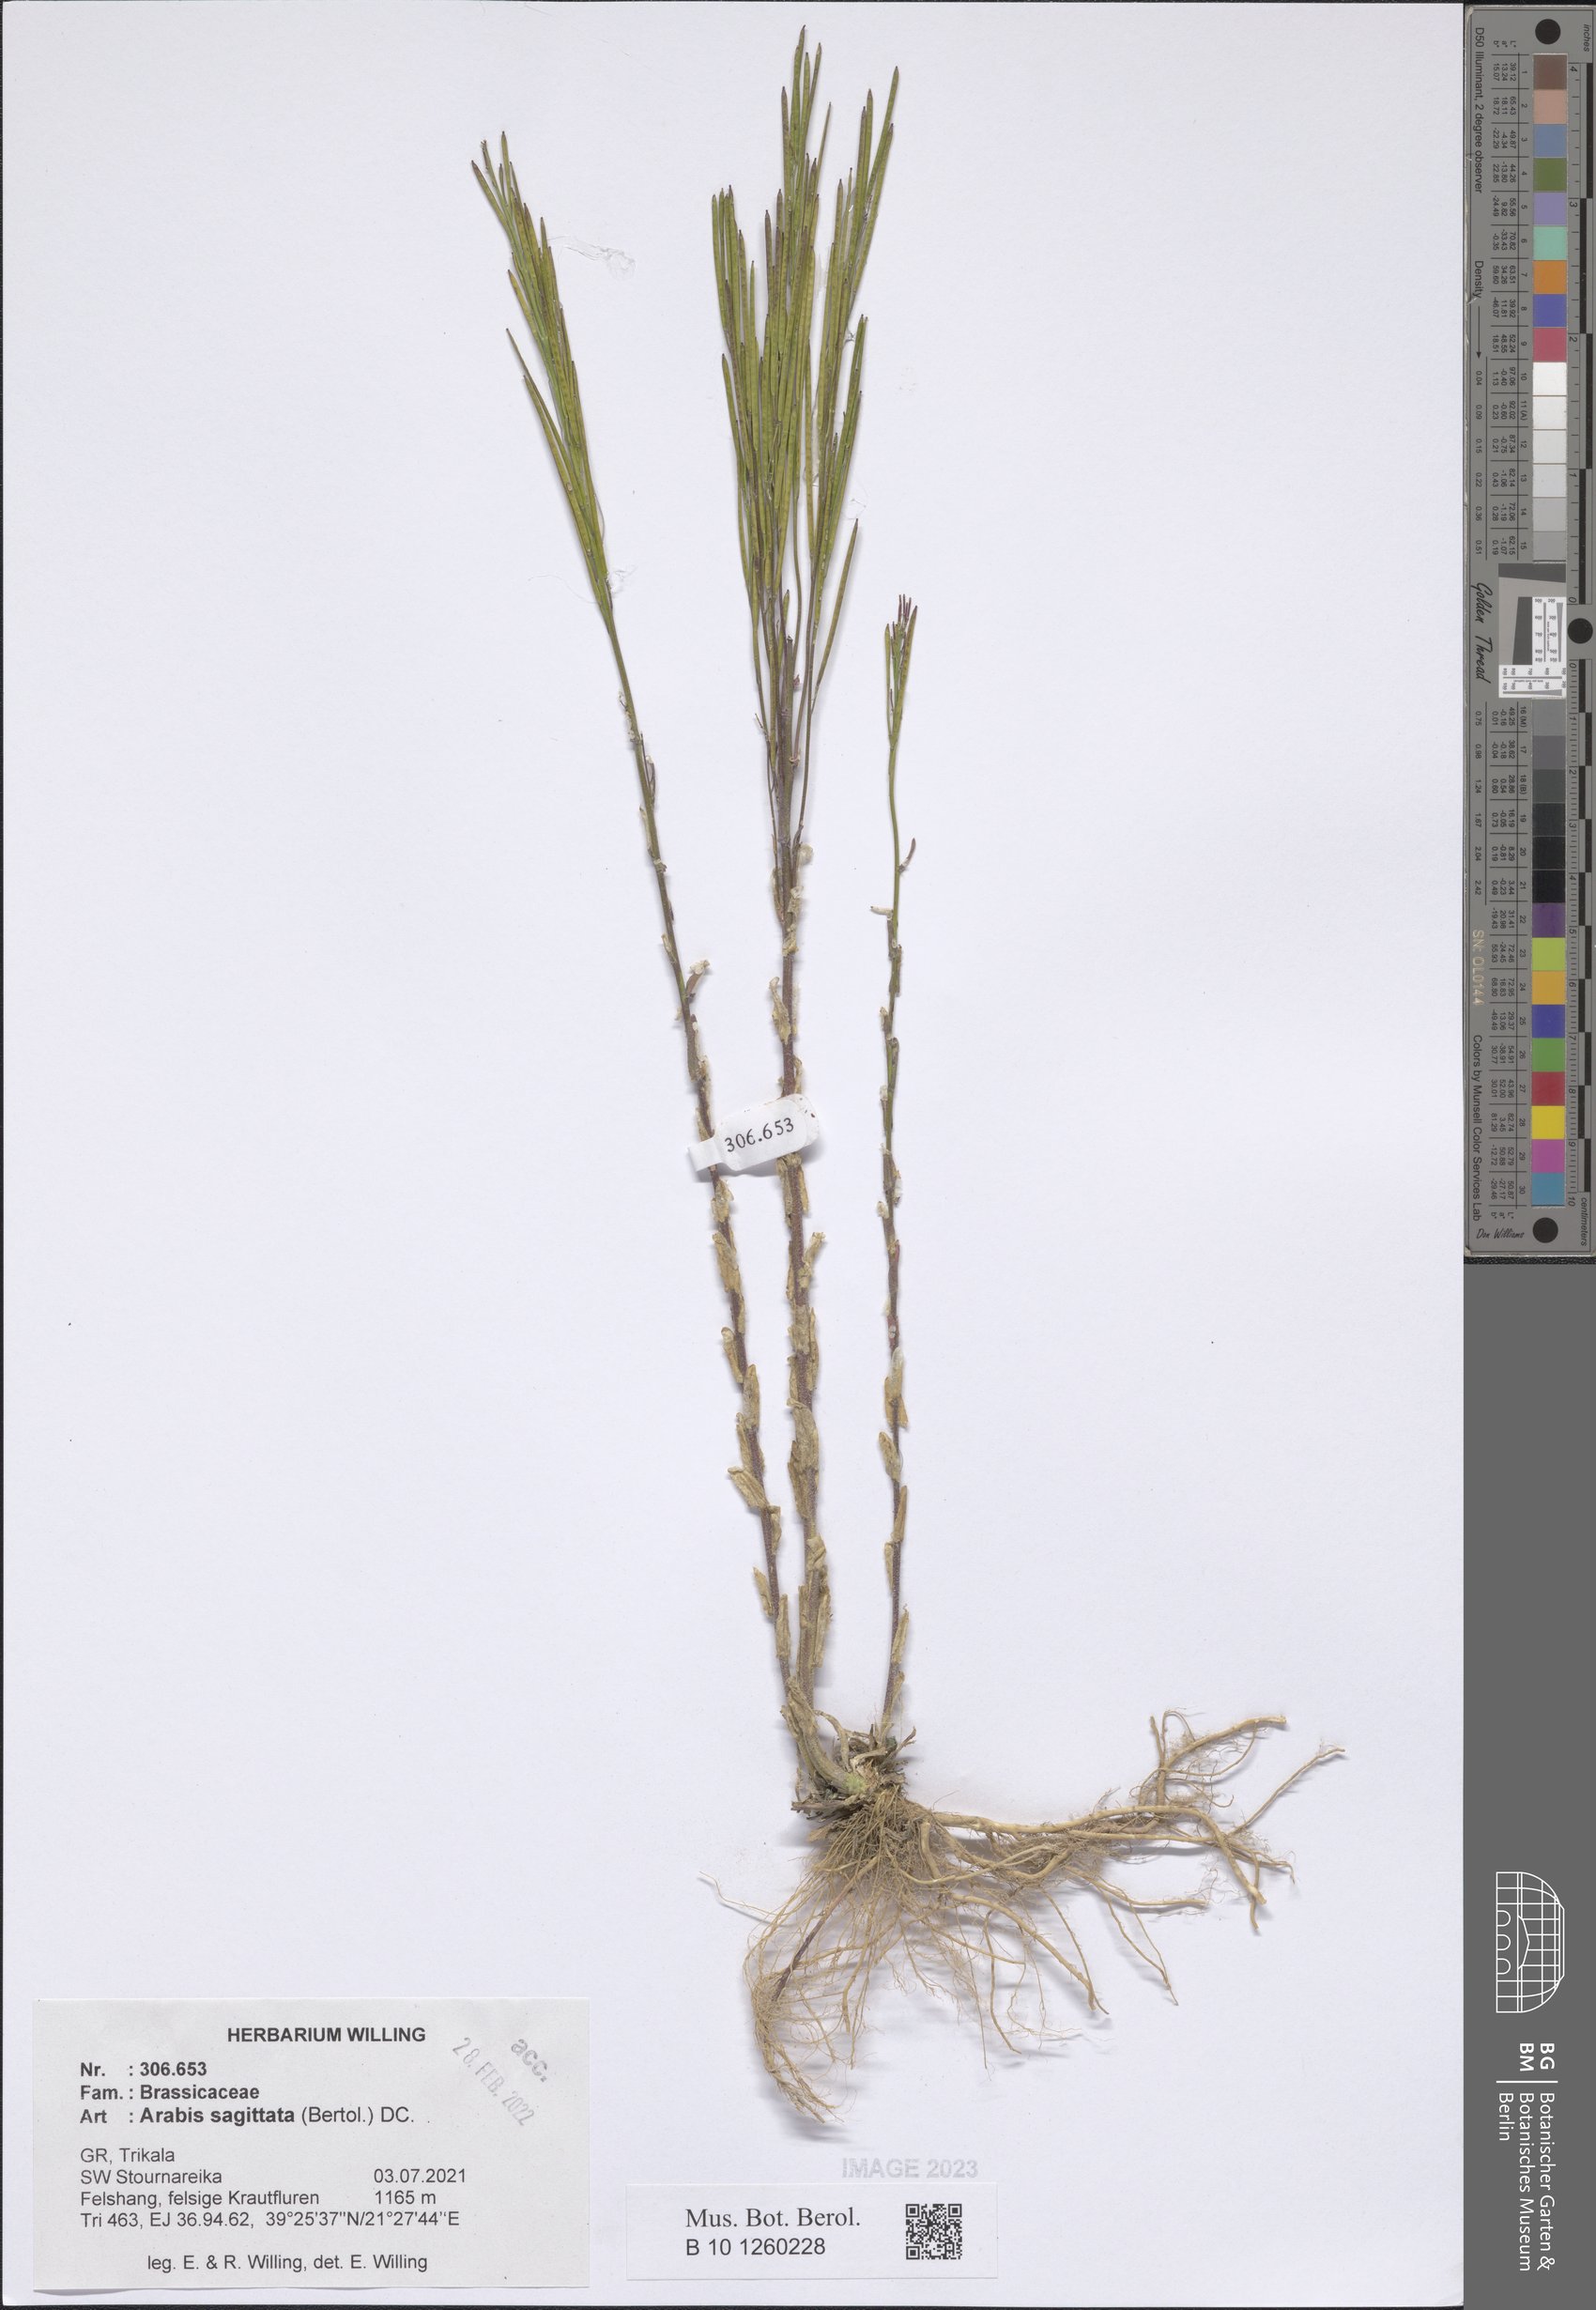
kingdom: Plantae
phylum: Tracheophyta
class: Magnoliopsida
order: Brassicales
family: Brassicaceae
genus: Arabis
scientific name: Arabis sagittata
